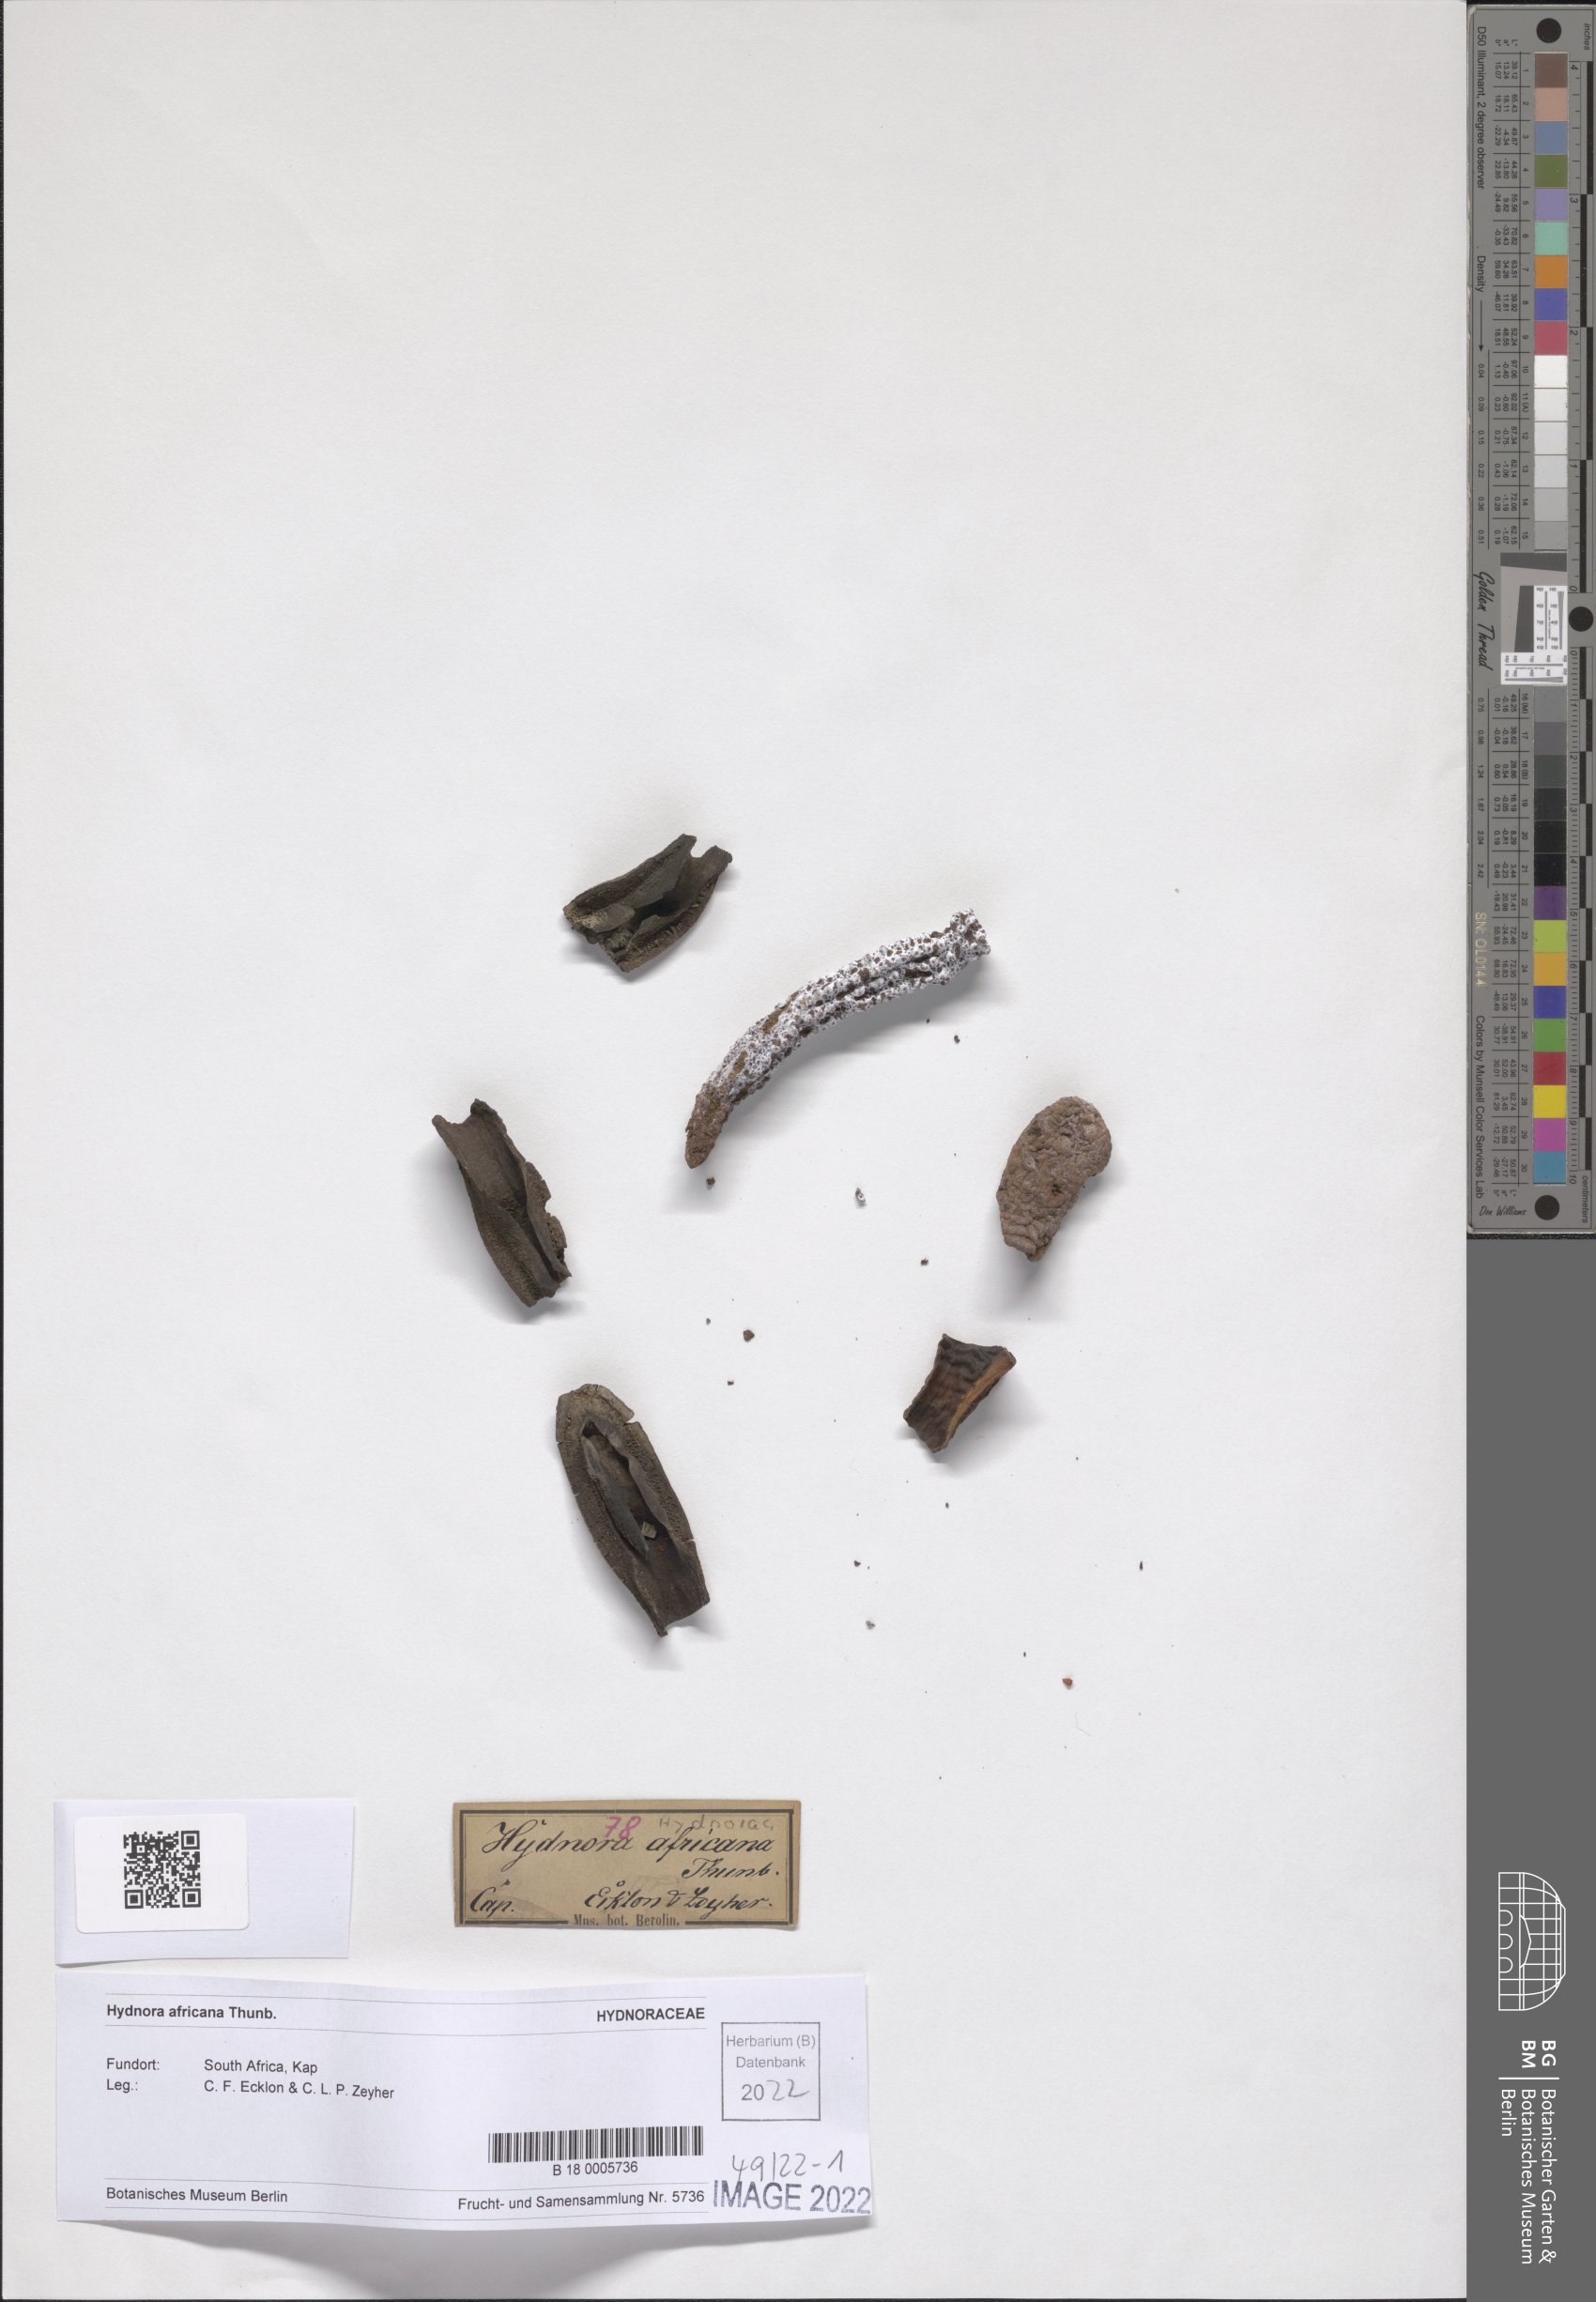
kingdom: Plantae
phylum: Tracheophyta
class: Magnoliopsida
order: Piperales
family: Hydnoraceae
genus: Hydnora
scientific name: Hydnora africana
